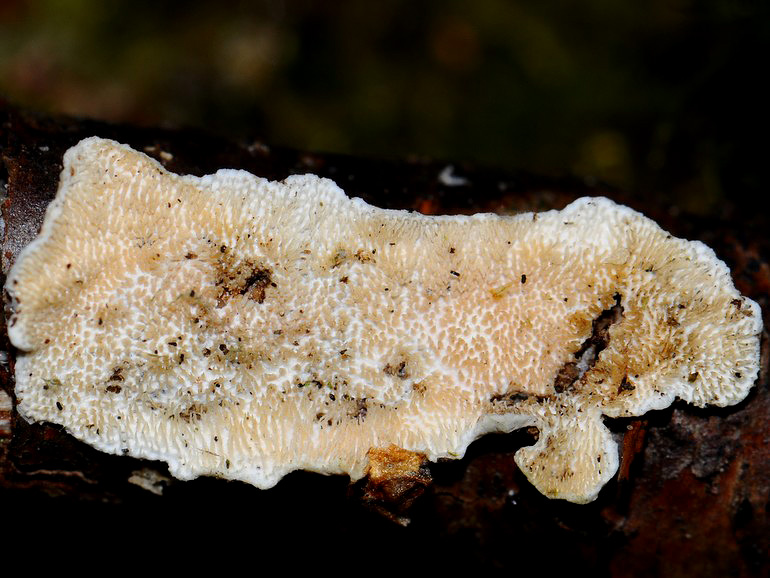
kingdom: Fungi
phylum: Basidiomycota
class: Agaricomycetes
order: Polyporales
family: Steccherinaceae
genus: Steccherinum
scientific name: Steccherinum
